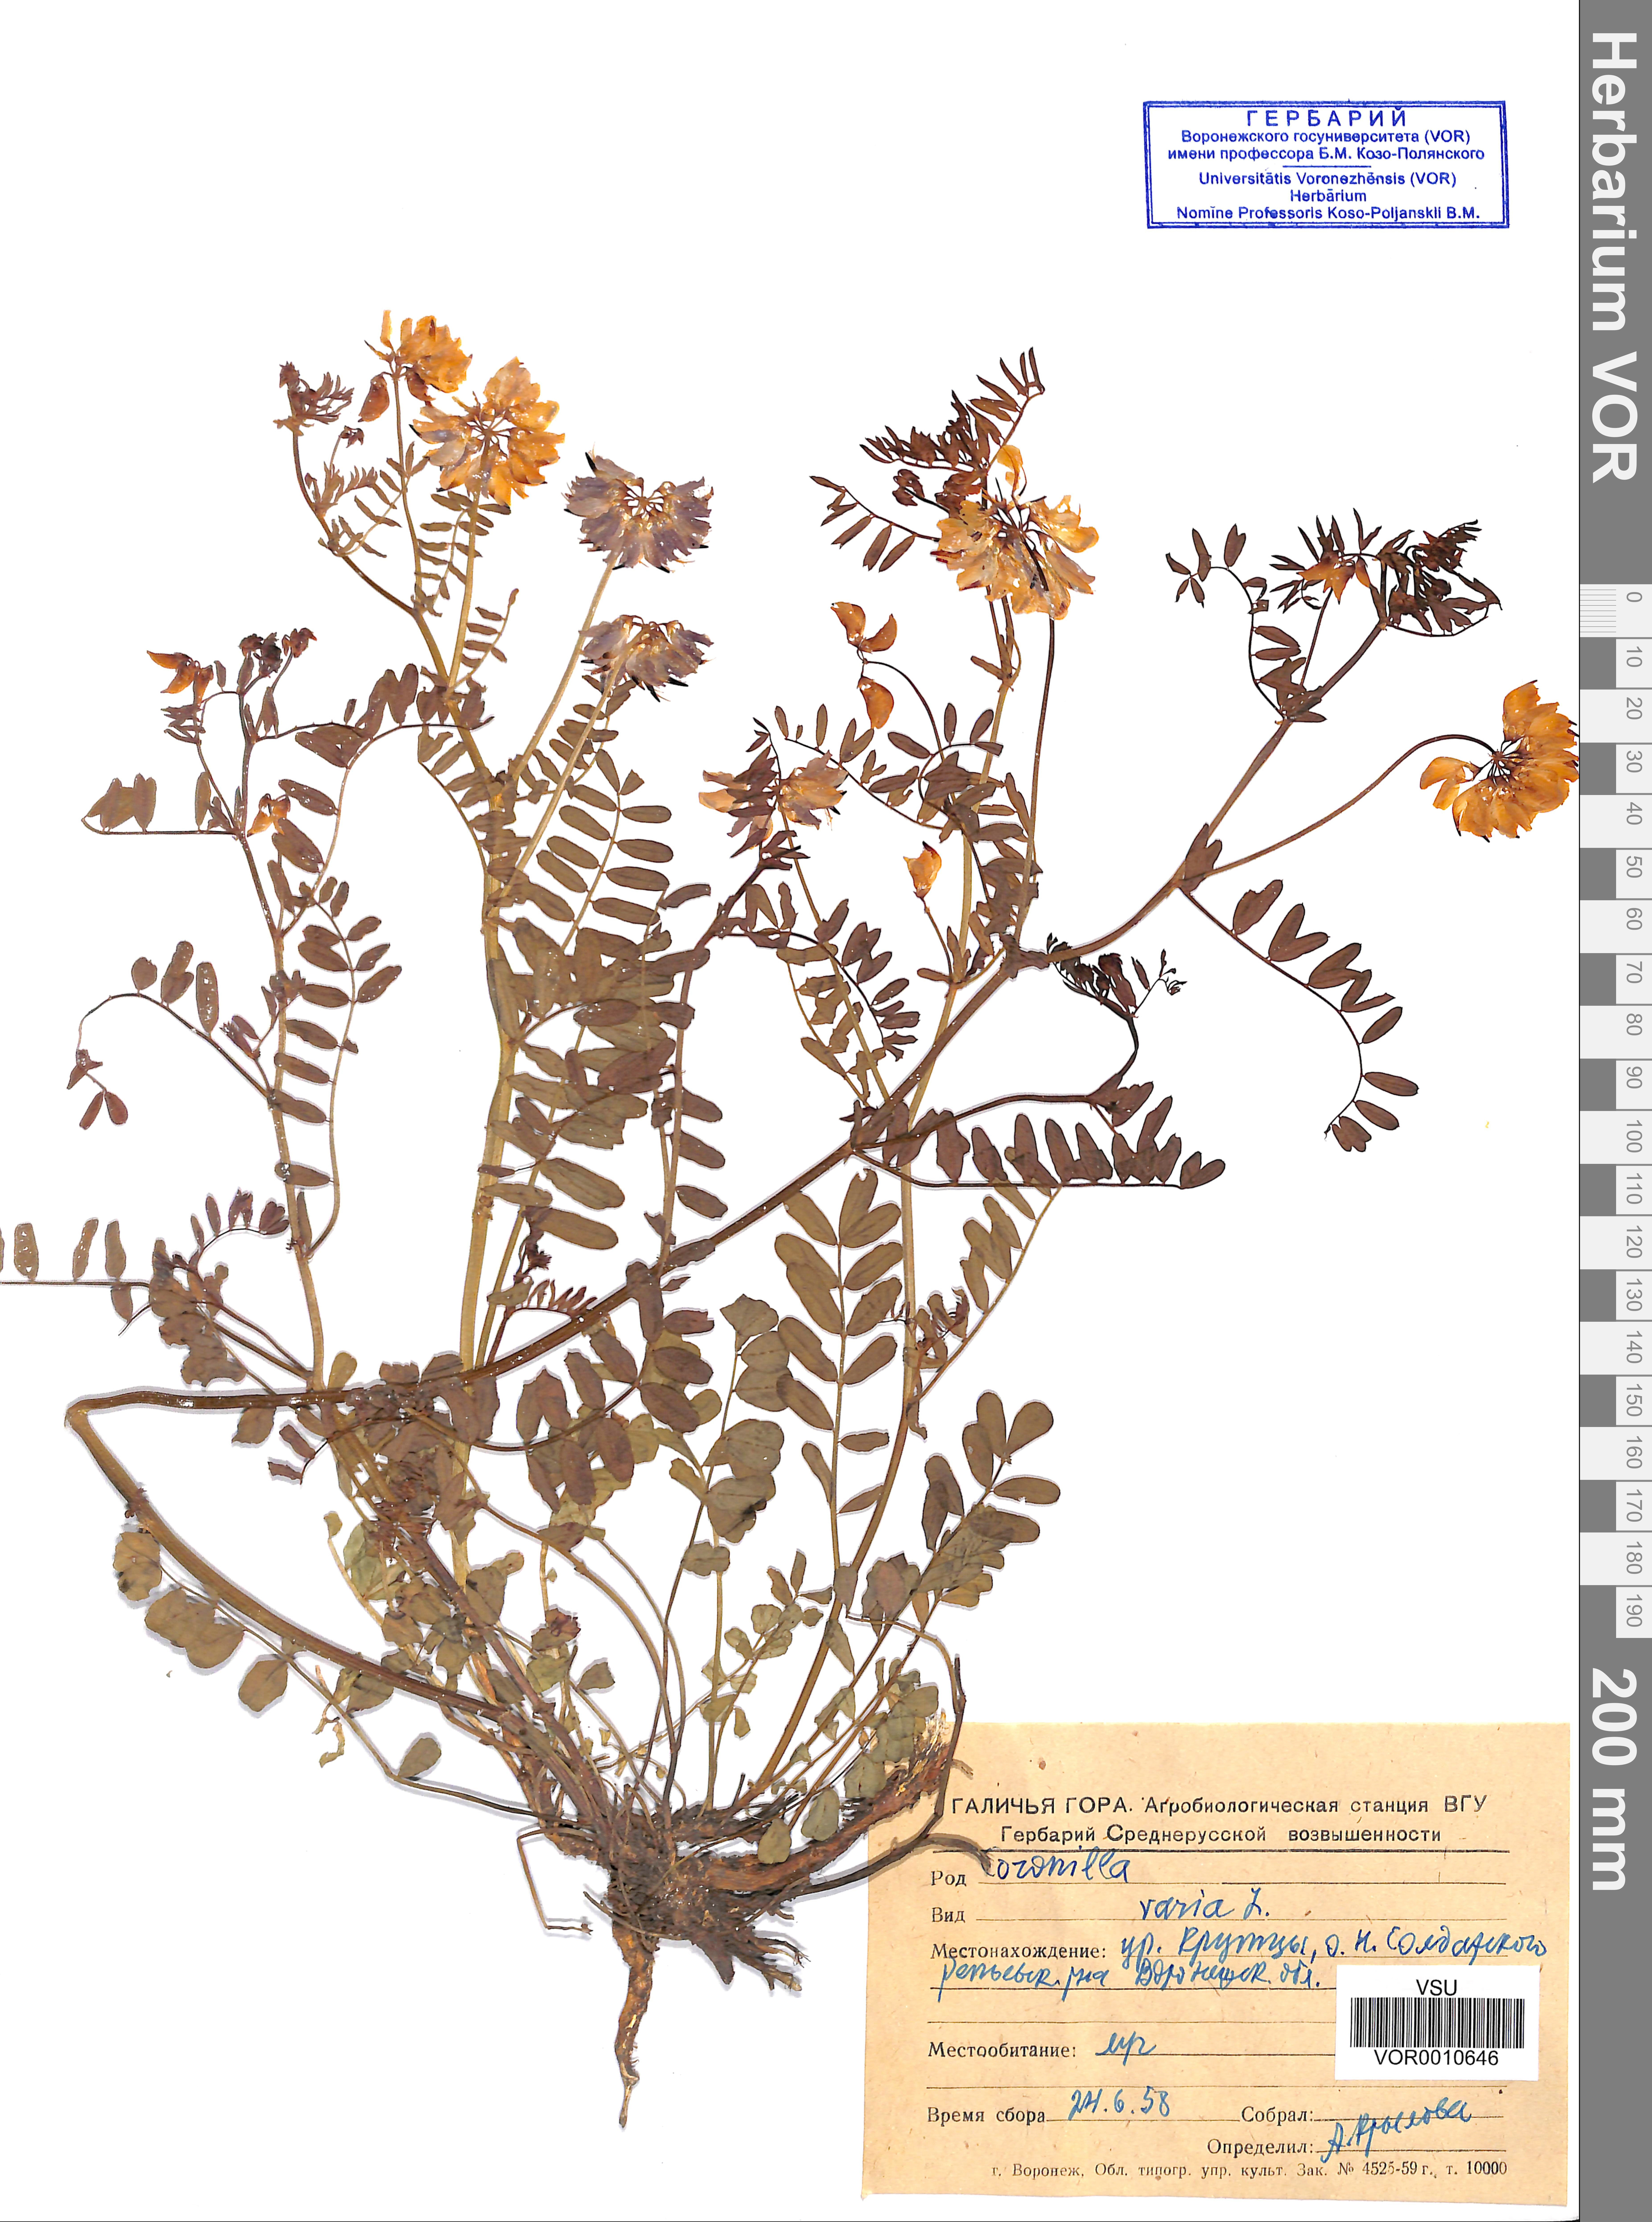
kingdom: Plantae
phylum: Tracheophyta
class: Magnoliopsida
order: Fabales
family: Fabaceae
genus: Coronilla
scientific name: Coronilla varia
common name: Crownvetch
